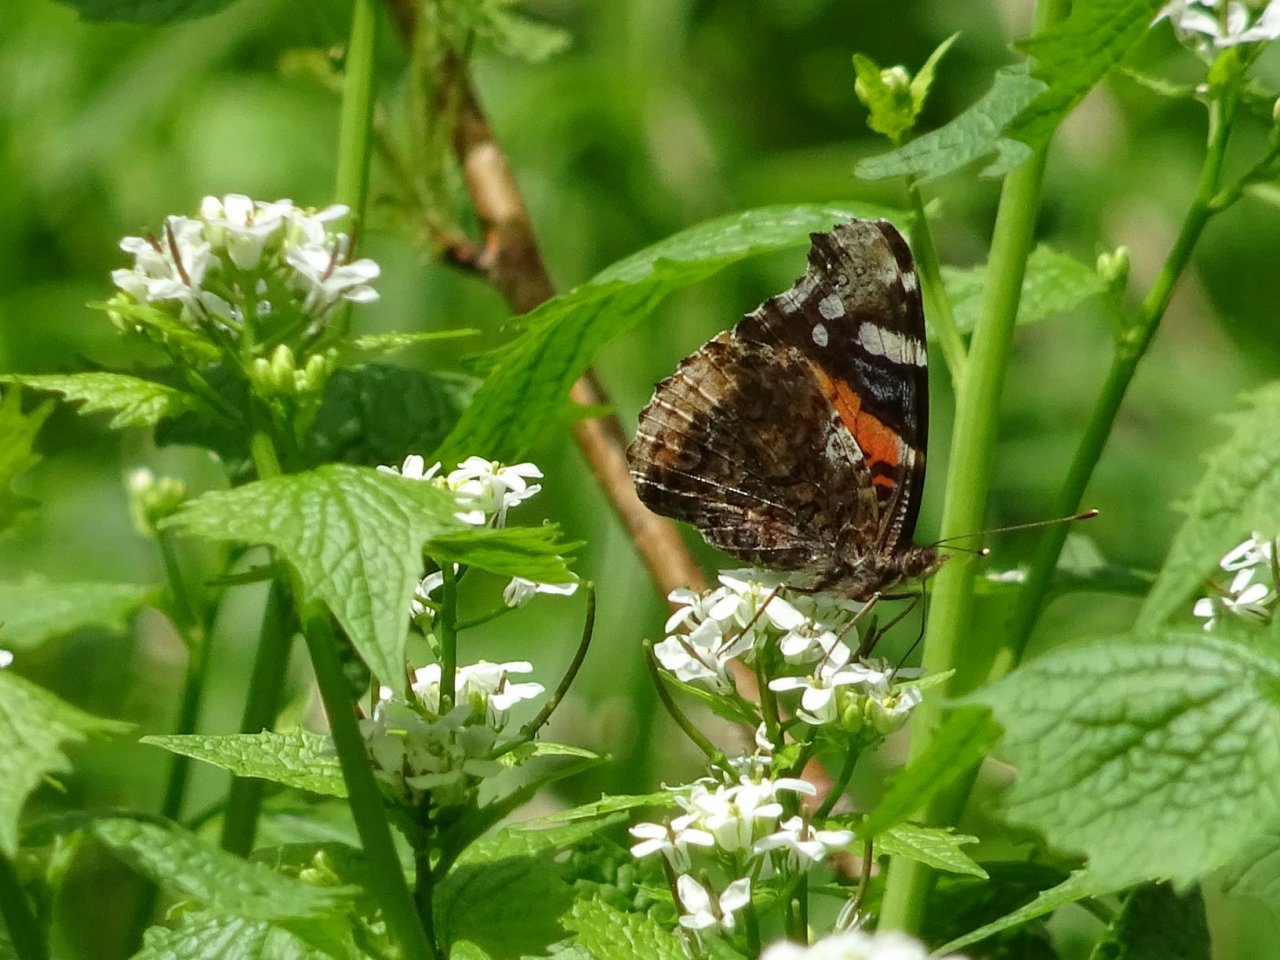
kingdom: Animalia
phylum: Arthropoda
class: Insecta
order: Lepidoptera
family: Nymphalidae
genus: Vanessa
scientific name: Vanessa atalanta
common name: Red Admiral
